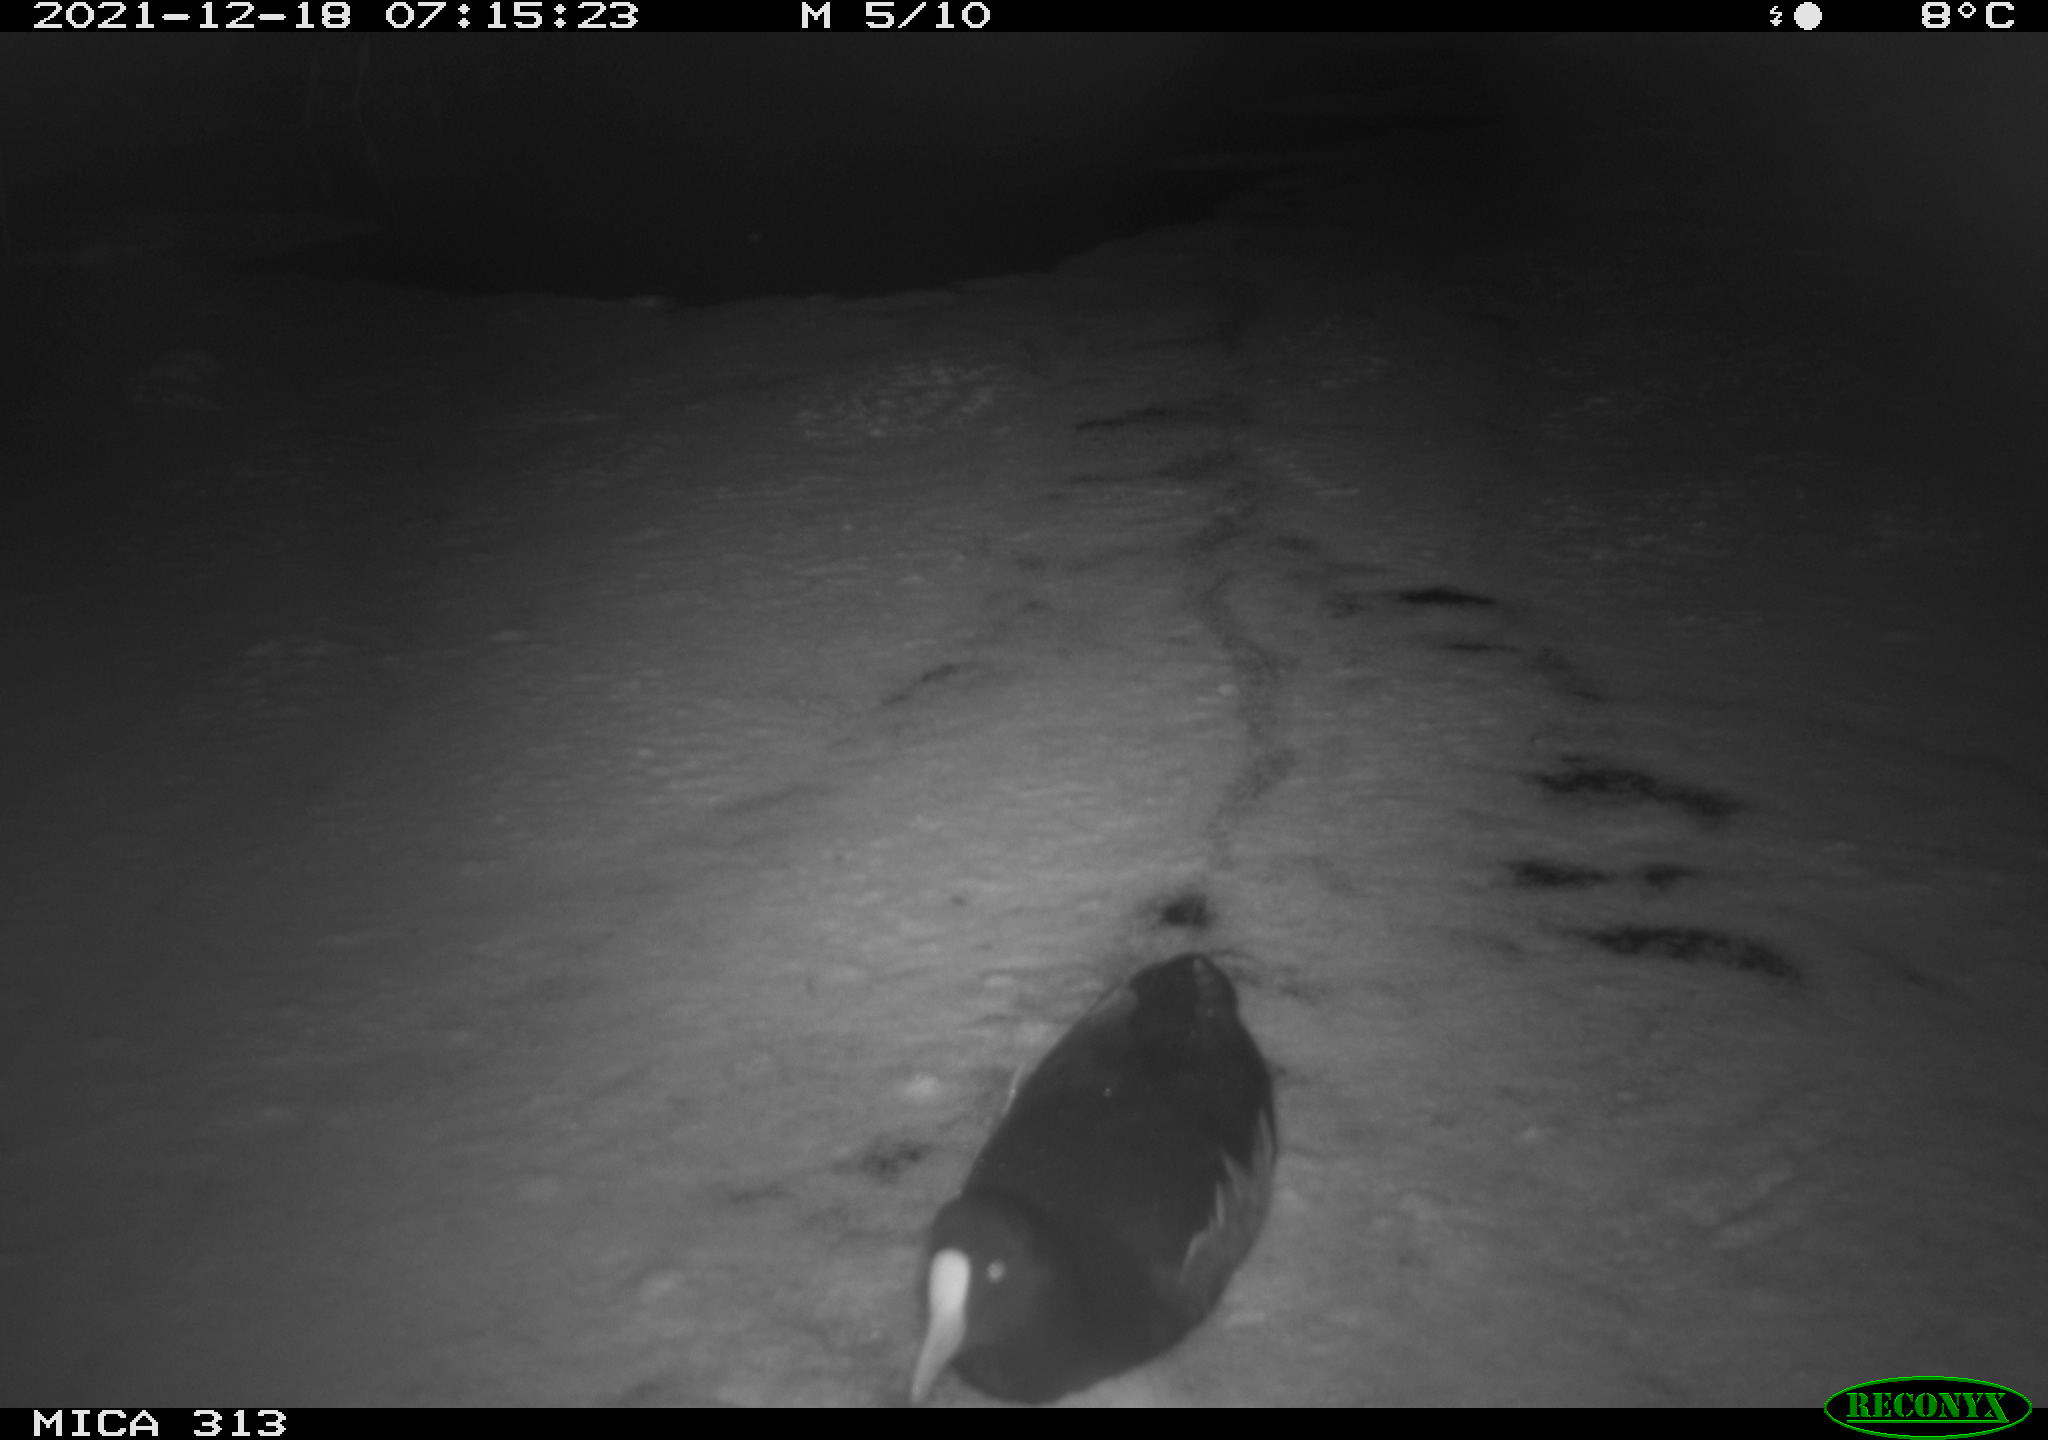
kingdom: Animalia
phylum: Chordata
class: Aves
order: Gruiformes
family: Rallidae
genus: Fulica
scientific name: Fulica atra
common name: Eurasian coot
